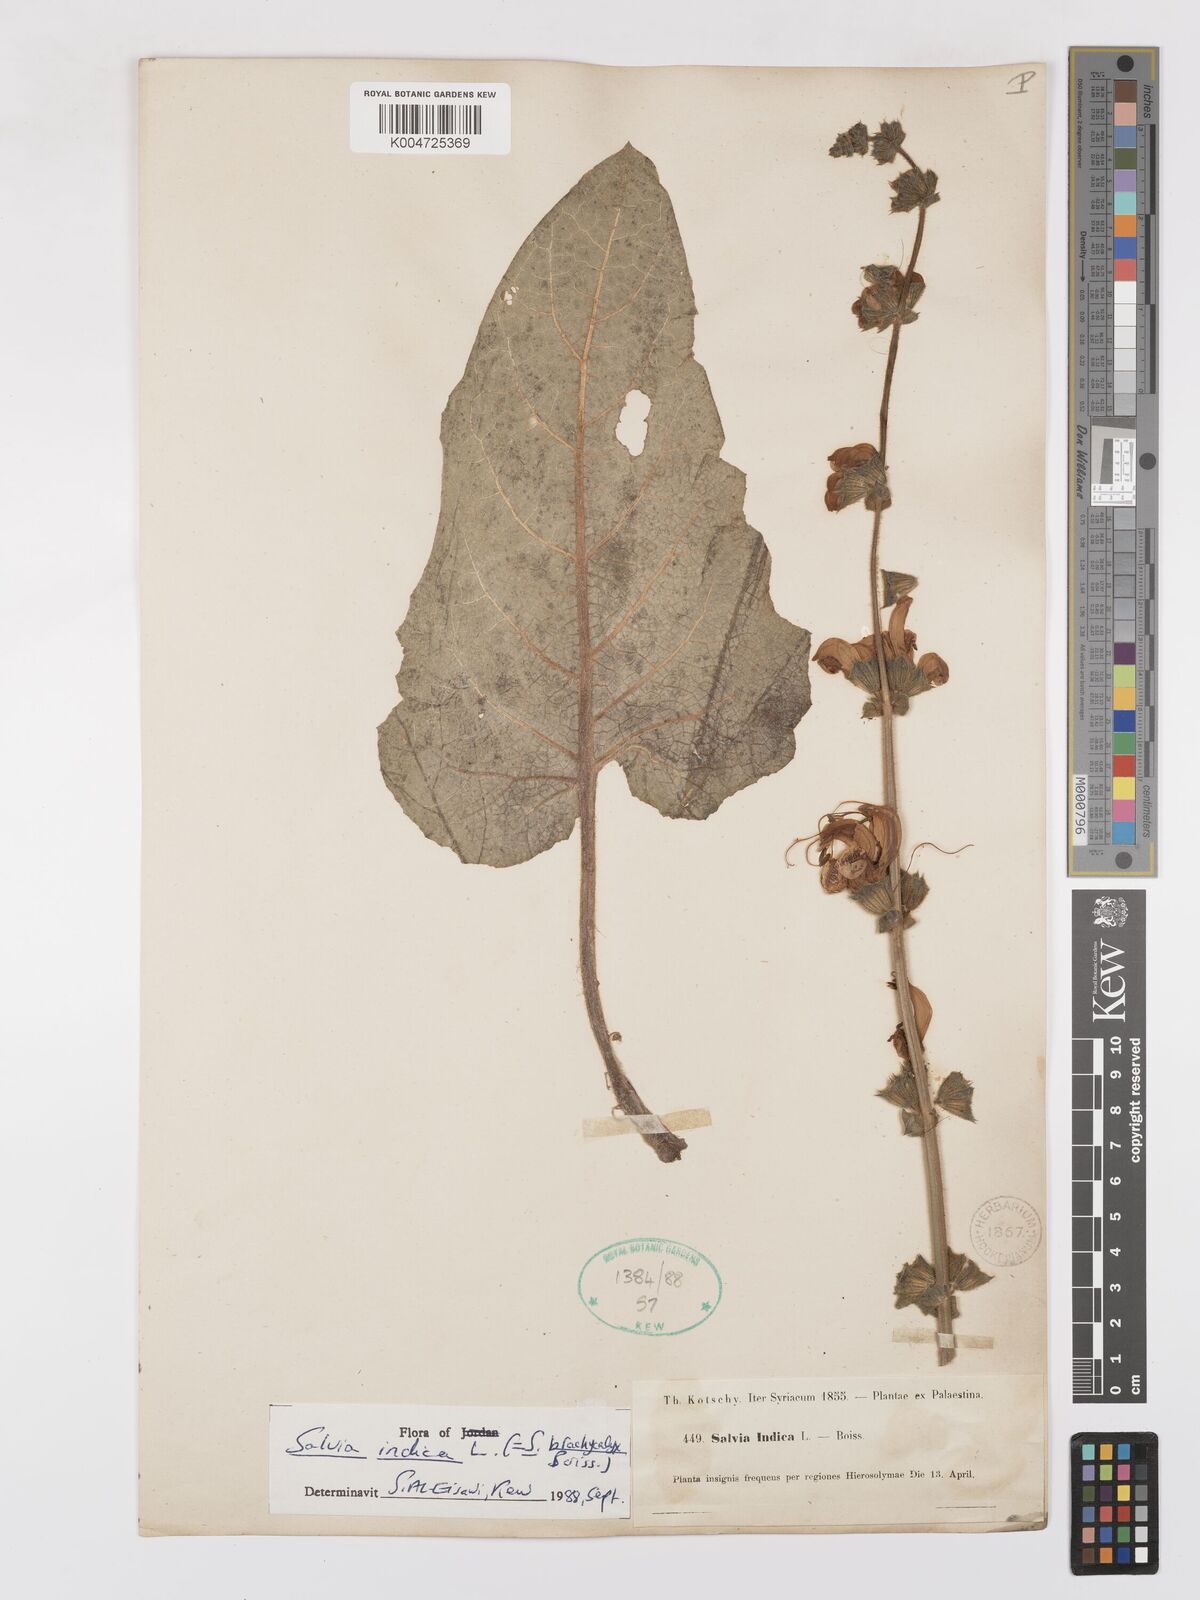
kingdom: Plantae
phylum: Tracheophyta
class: Magnoliopsida
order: Lamiales
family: Lamiaceae
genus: Salvia
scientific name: Salvia indica
